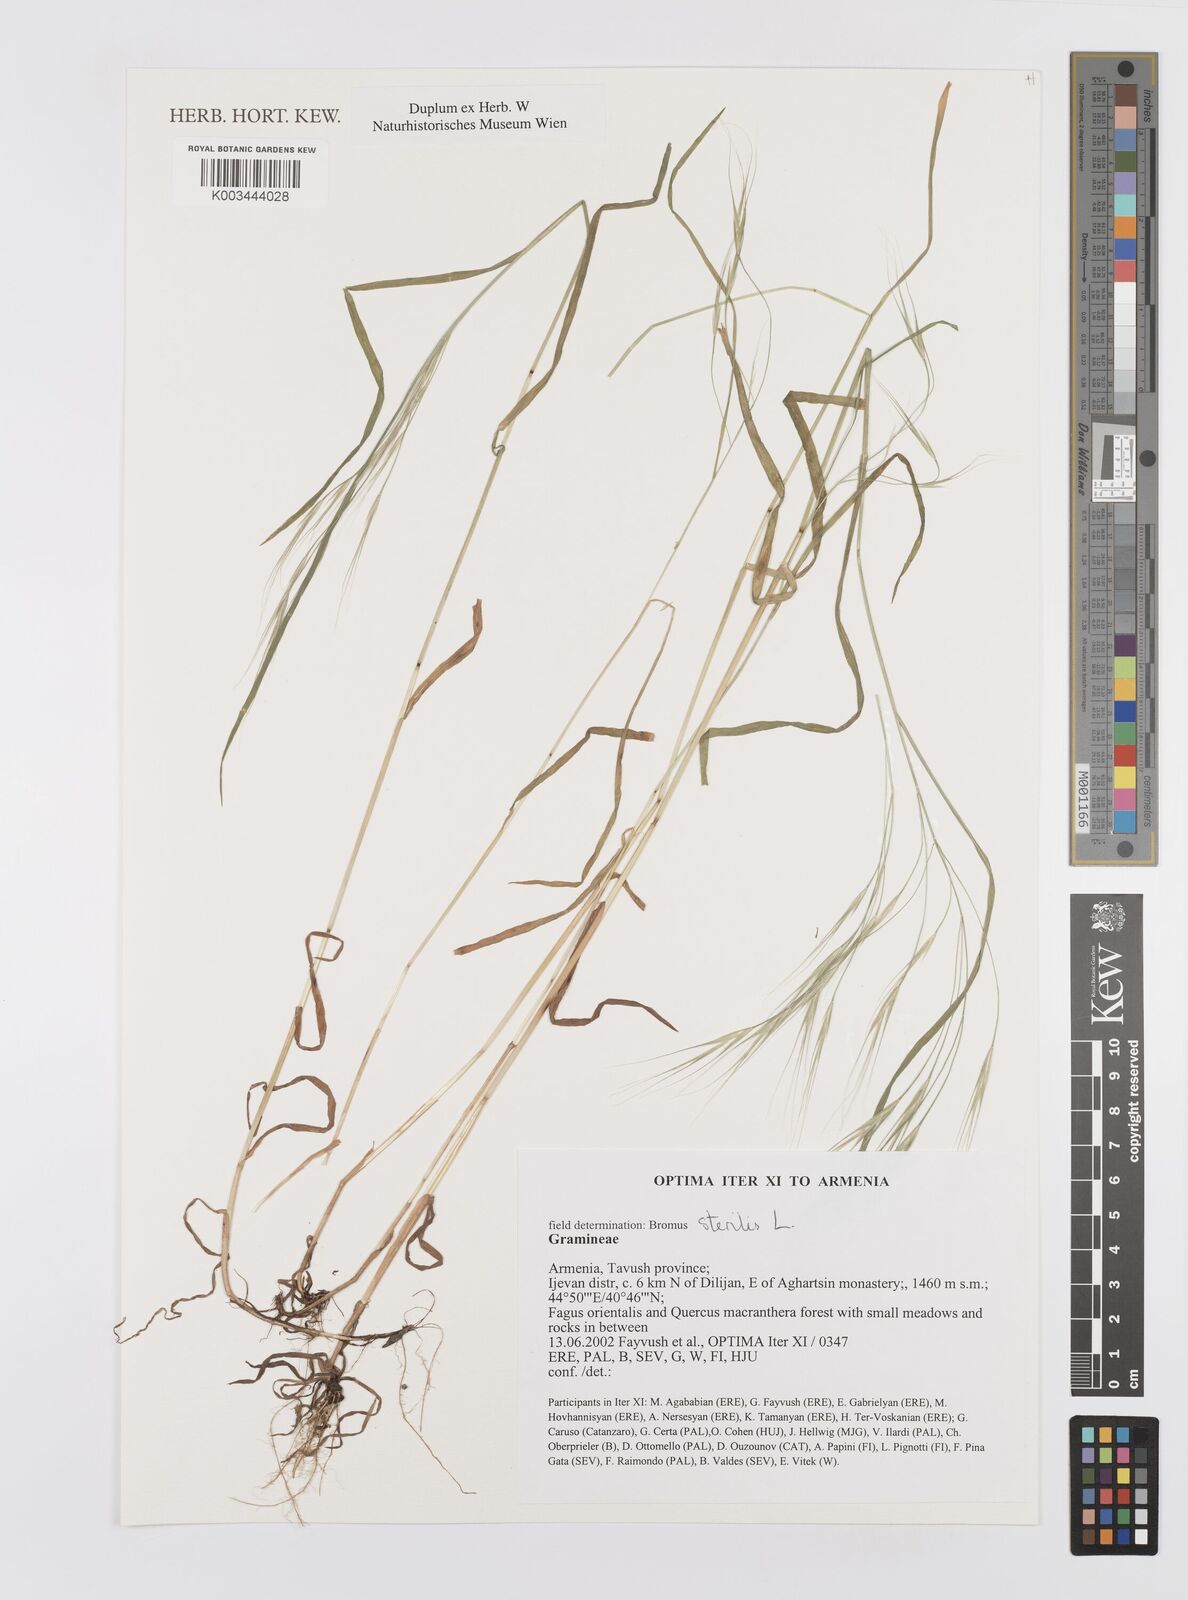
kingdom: Plantae
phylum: Tracheophyta
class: Liliopsida
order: Poales
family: Poaceae
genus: Bromus
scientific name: Bromus sterilis
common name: Poverty brome
